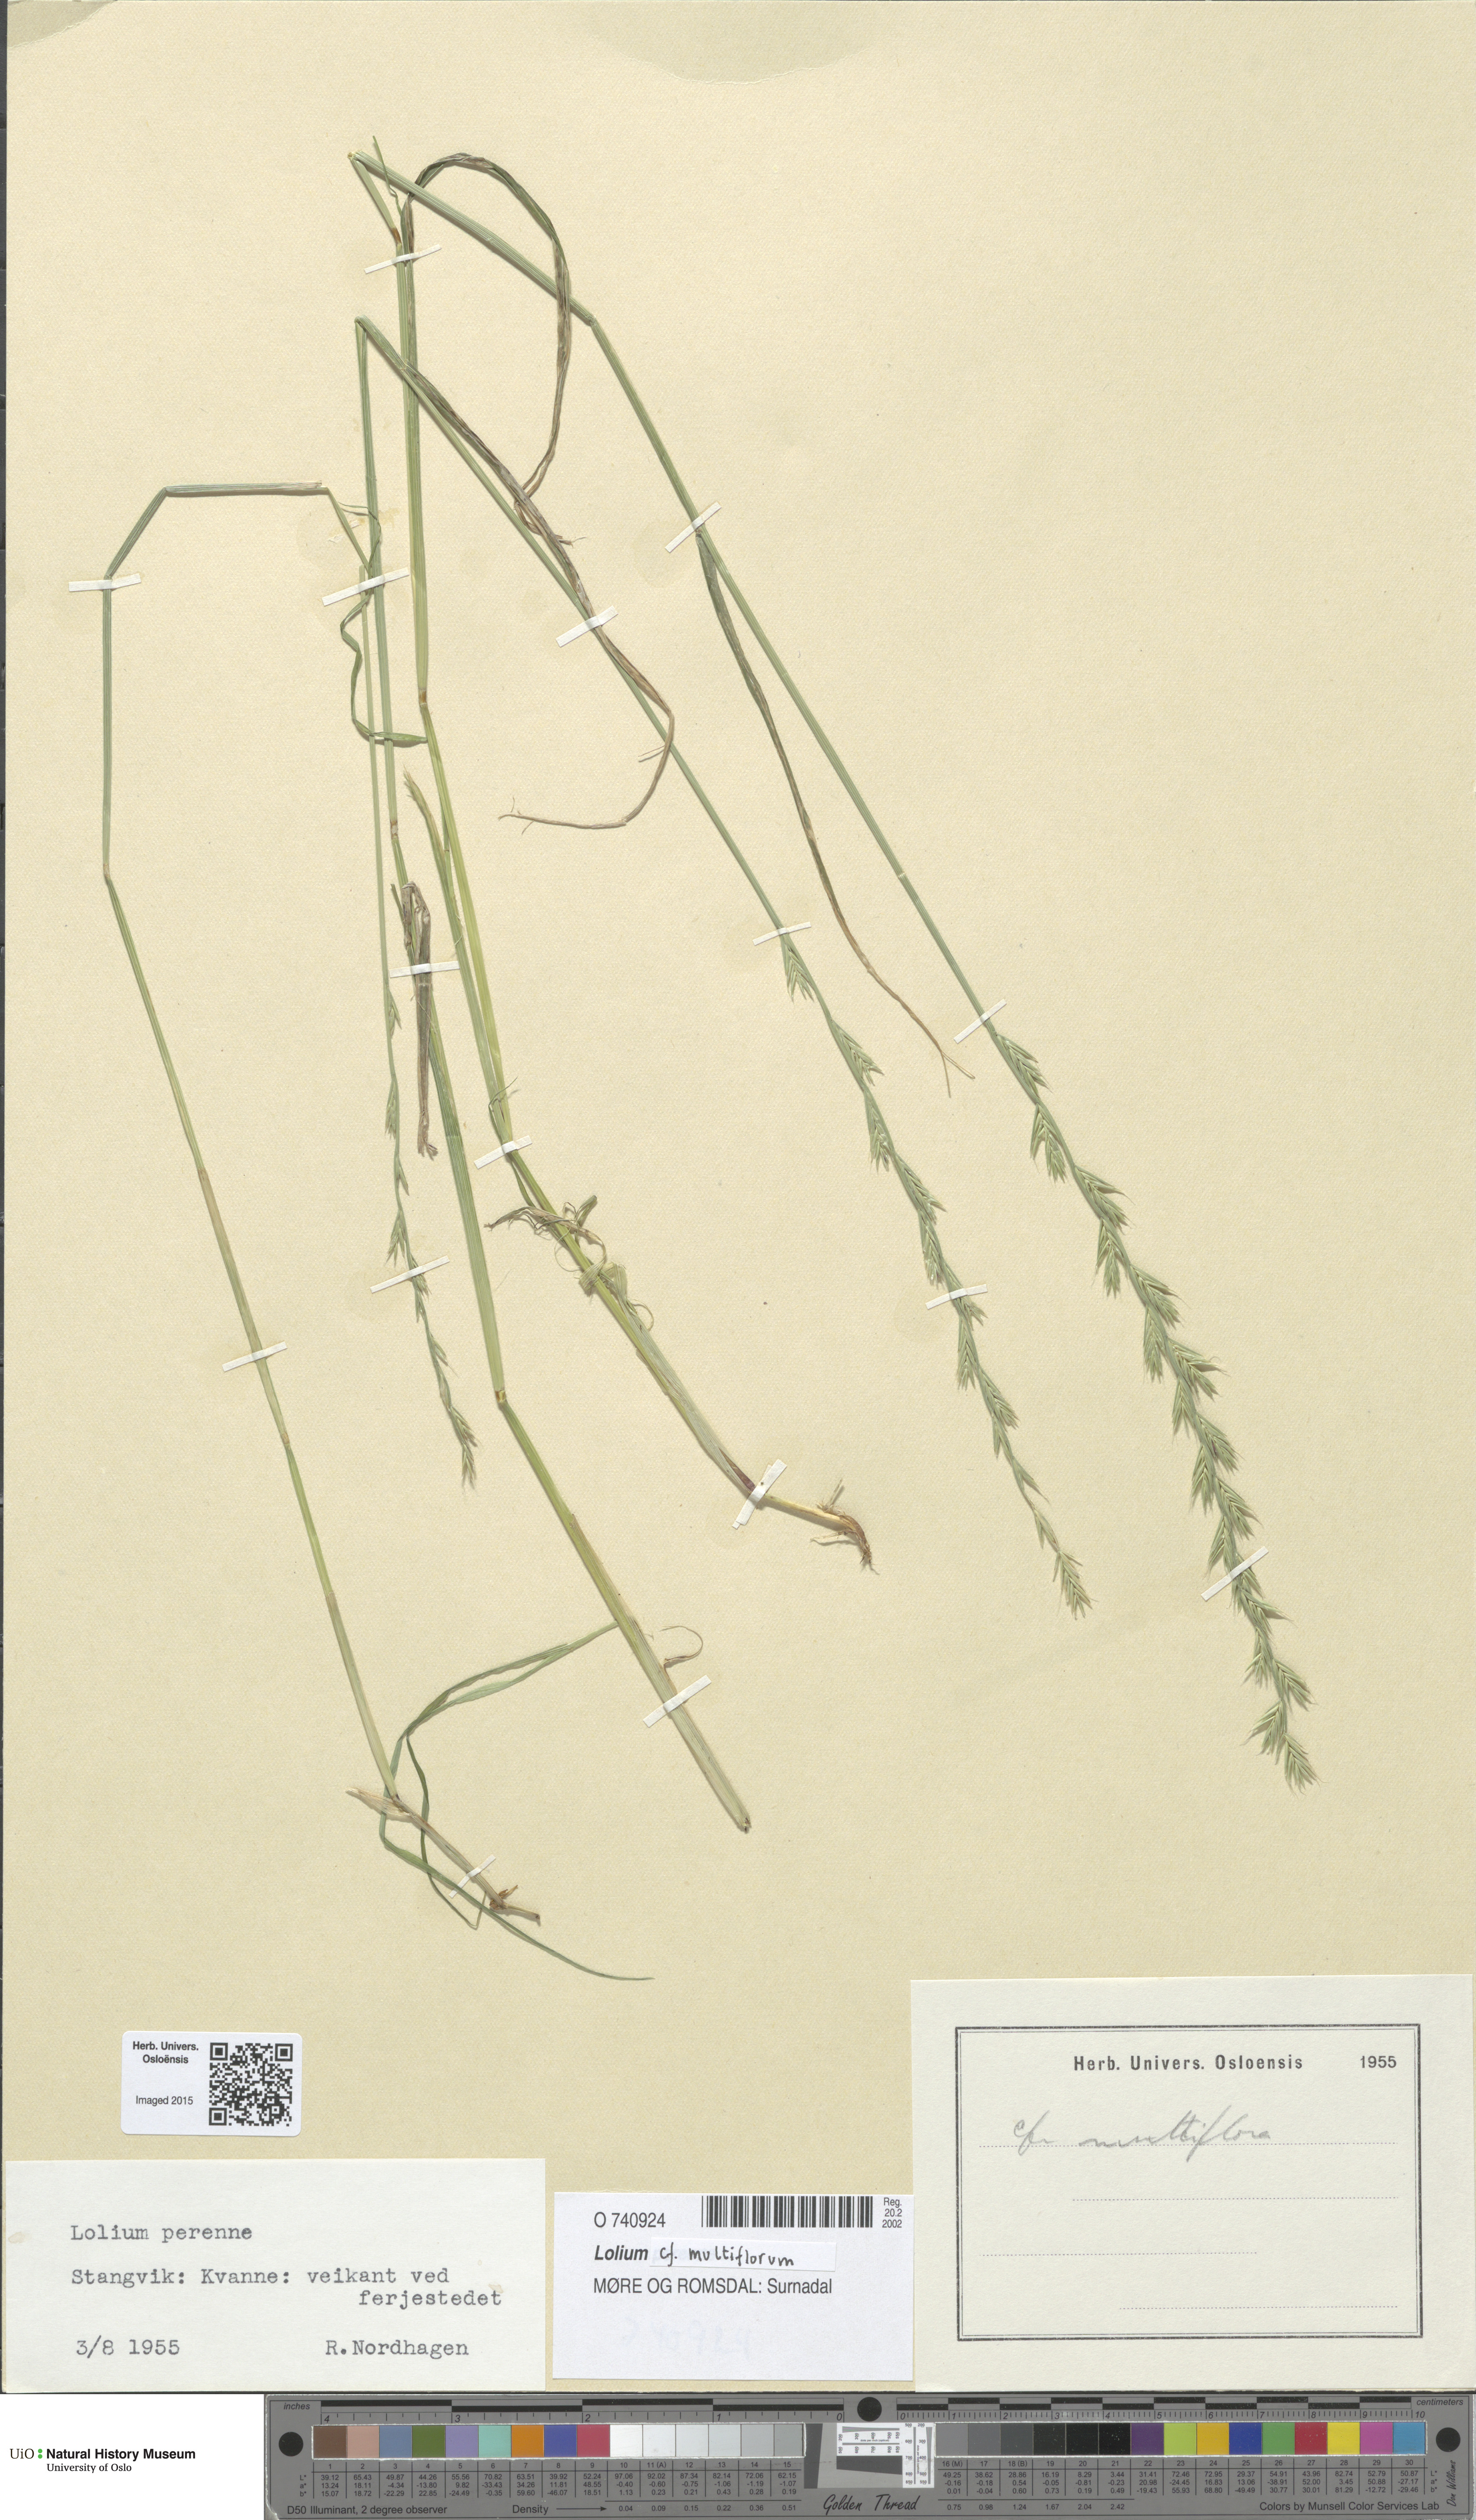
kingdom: Plantae
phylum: Tracheophyta
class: Liliopsida
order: Poales
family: Poaceae
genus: Lolium
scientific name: Lolium multiflorum
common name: Annual ryegrass
